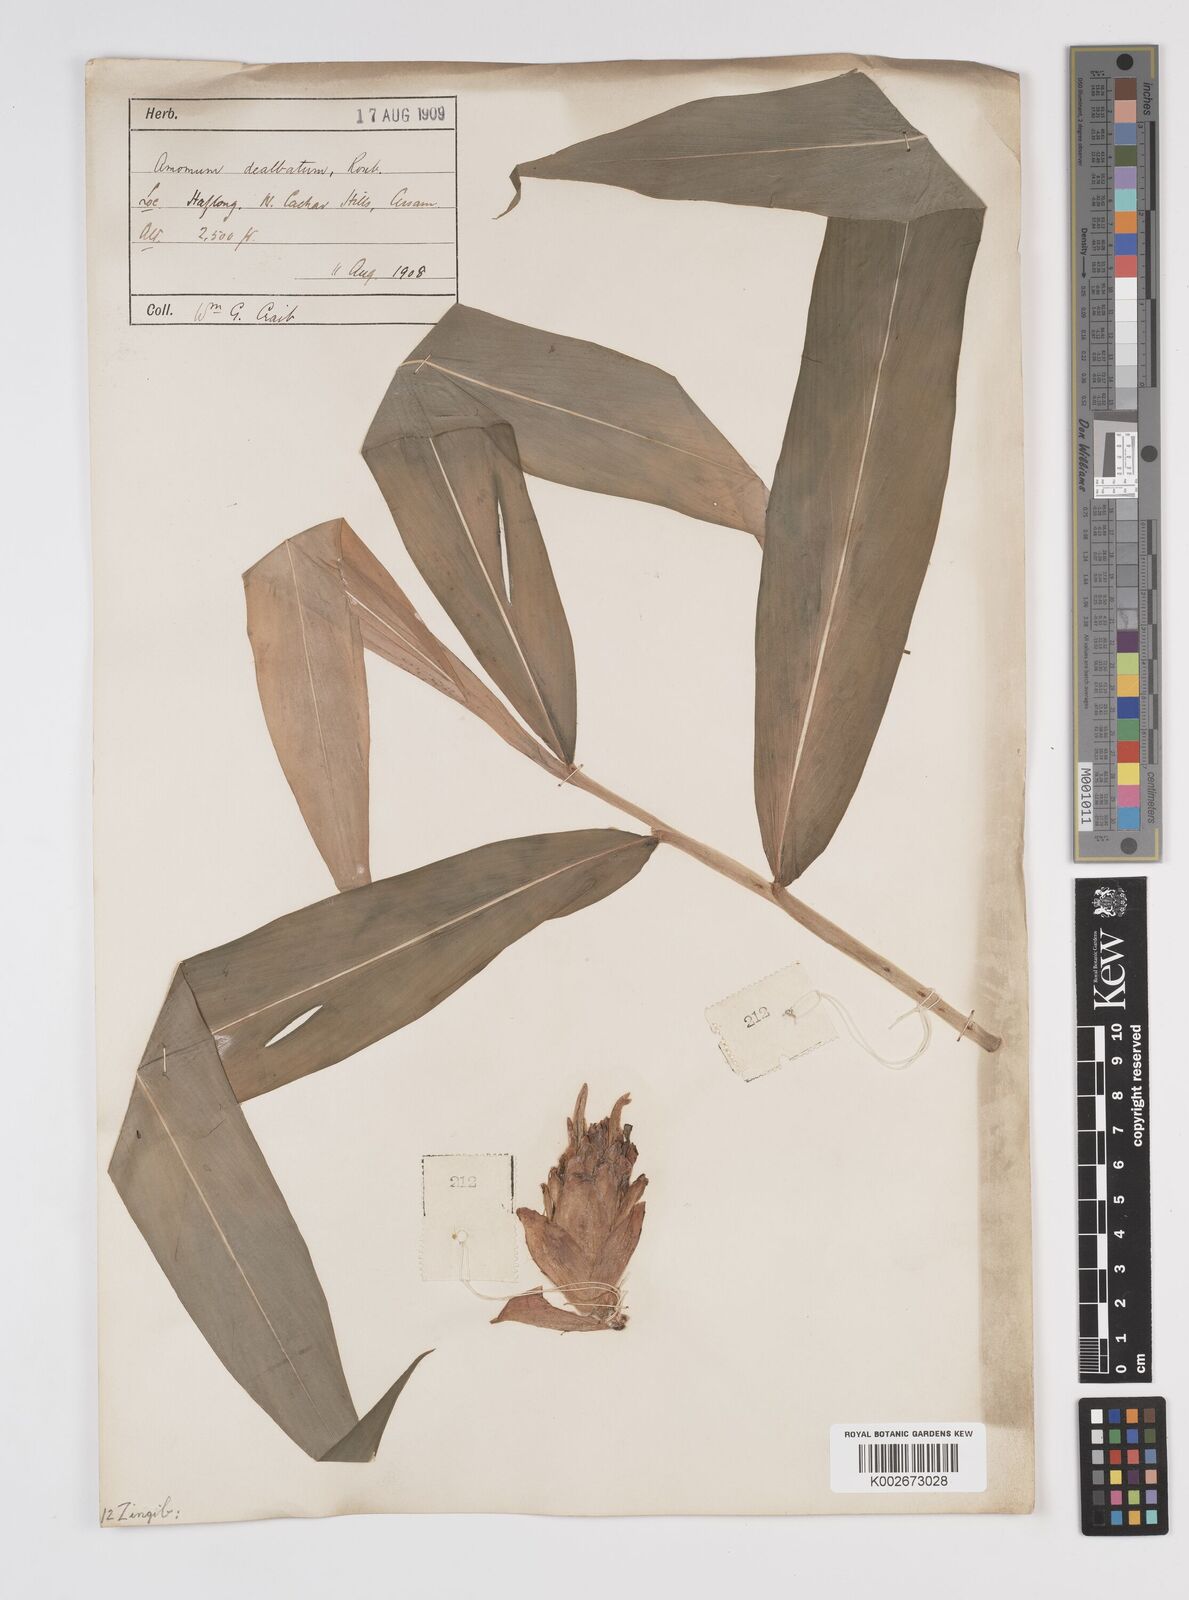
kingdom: Plantae
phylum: Tracheophyta
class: Liliopsida
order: Zingiberales
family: Zingiberaceae
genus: Amomum
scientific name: Amomum dealbatum
